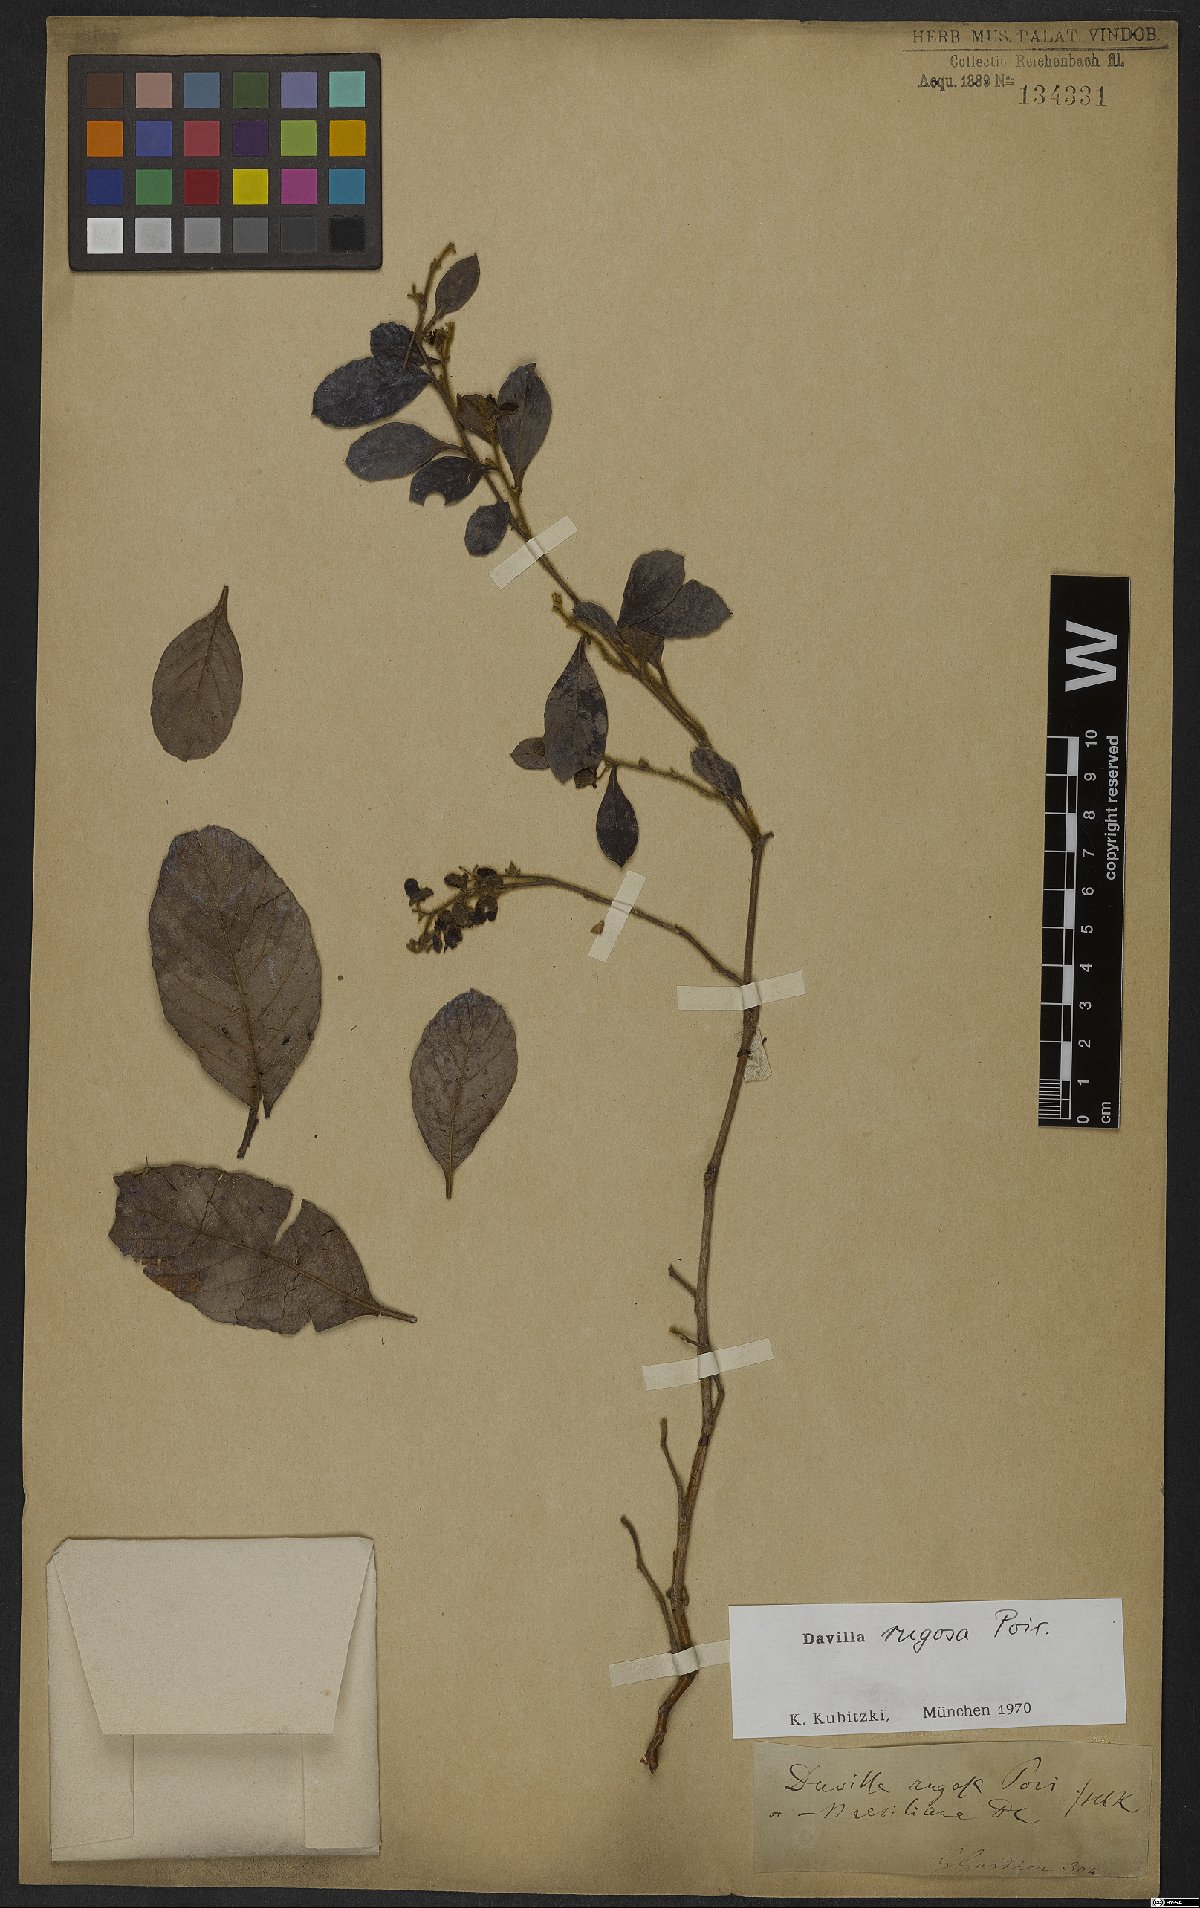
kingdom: Plantae
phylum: Tracheophyta
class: Magnoliopsida
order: Dilleniales
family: Dilleniaceae
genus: Davilla
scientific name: Davilla rugosa
